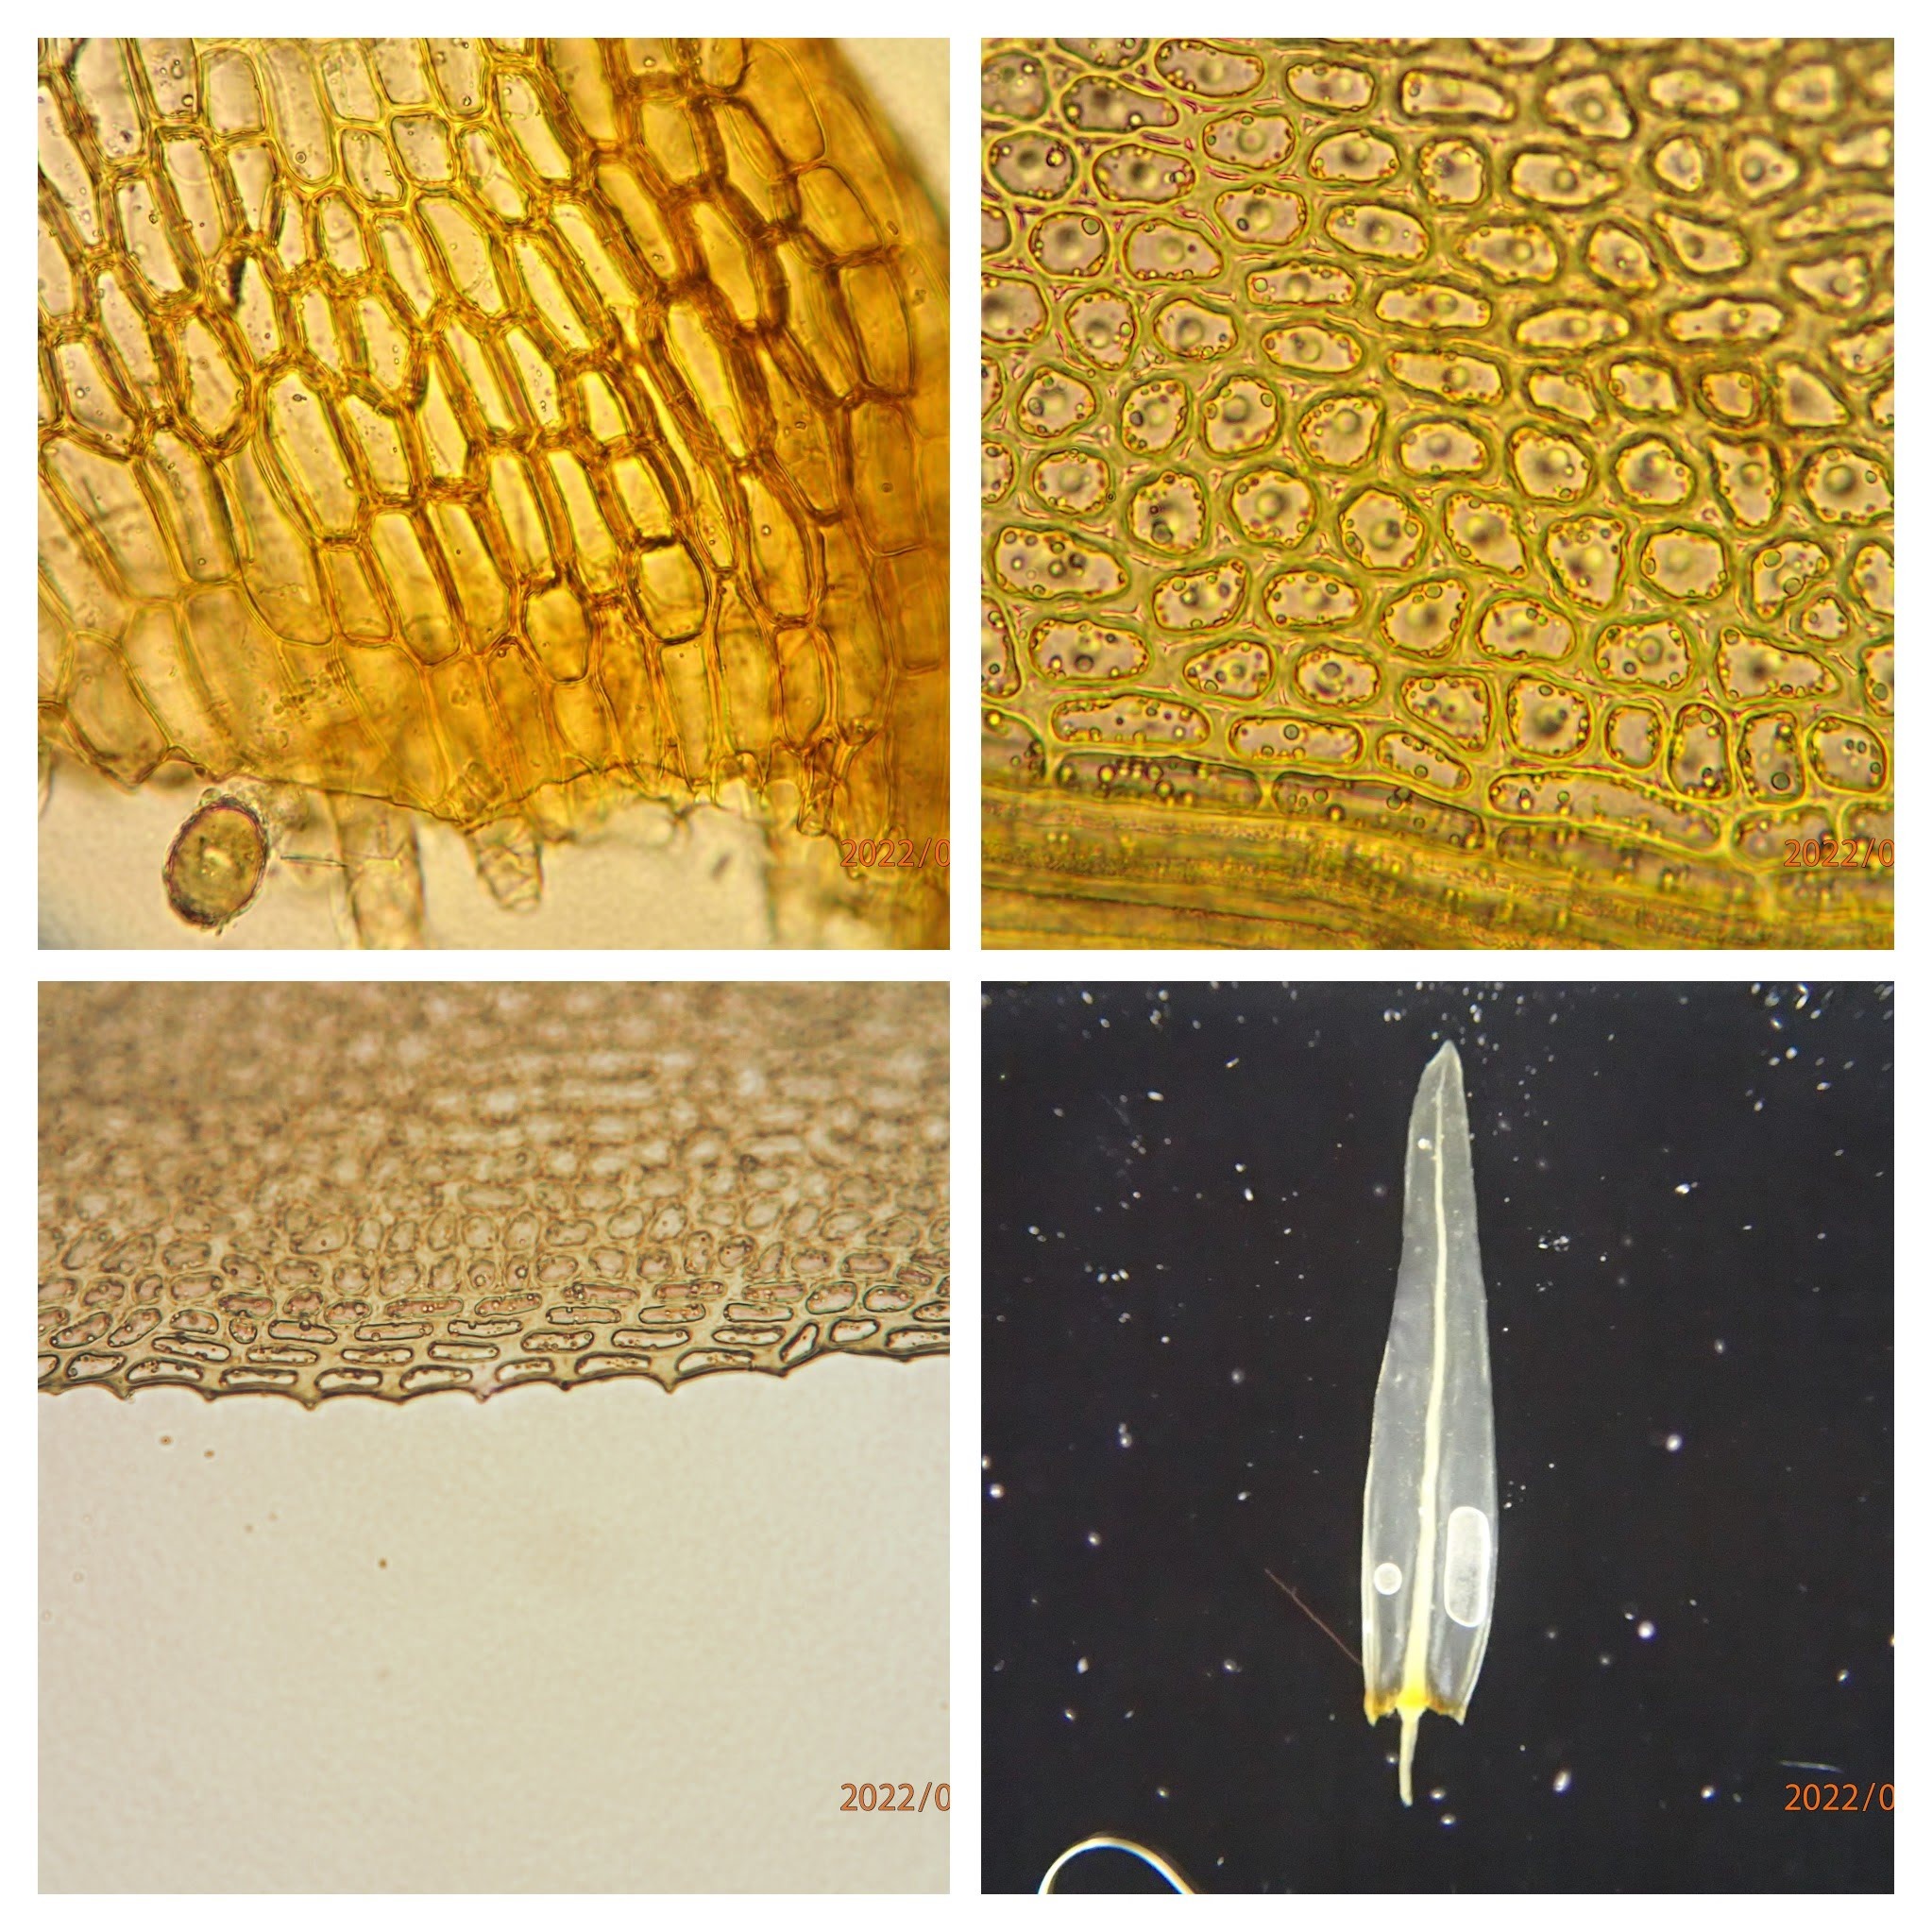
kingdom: Plantae
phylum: Bryophyta
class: Bryopsida
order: Aulacomniales
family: Aulacomniaceae
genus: Aulacomnium
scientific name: Aulacomnium palustre
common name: Almindelig filtmos
